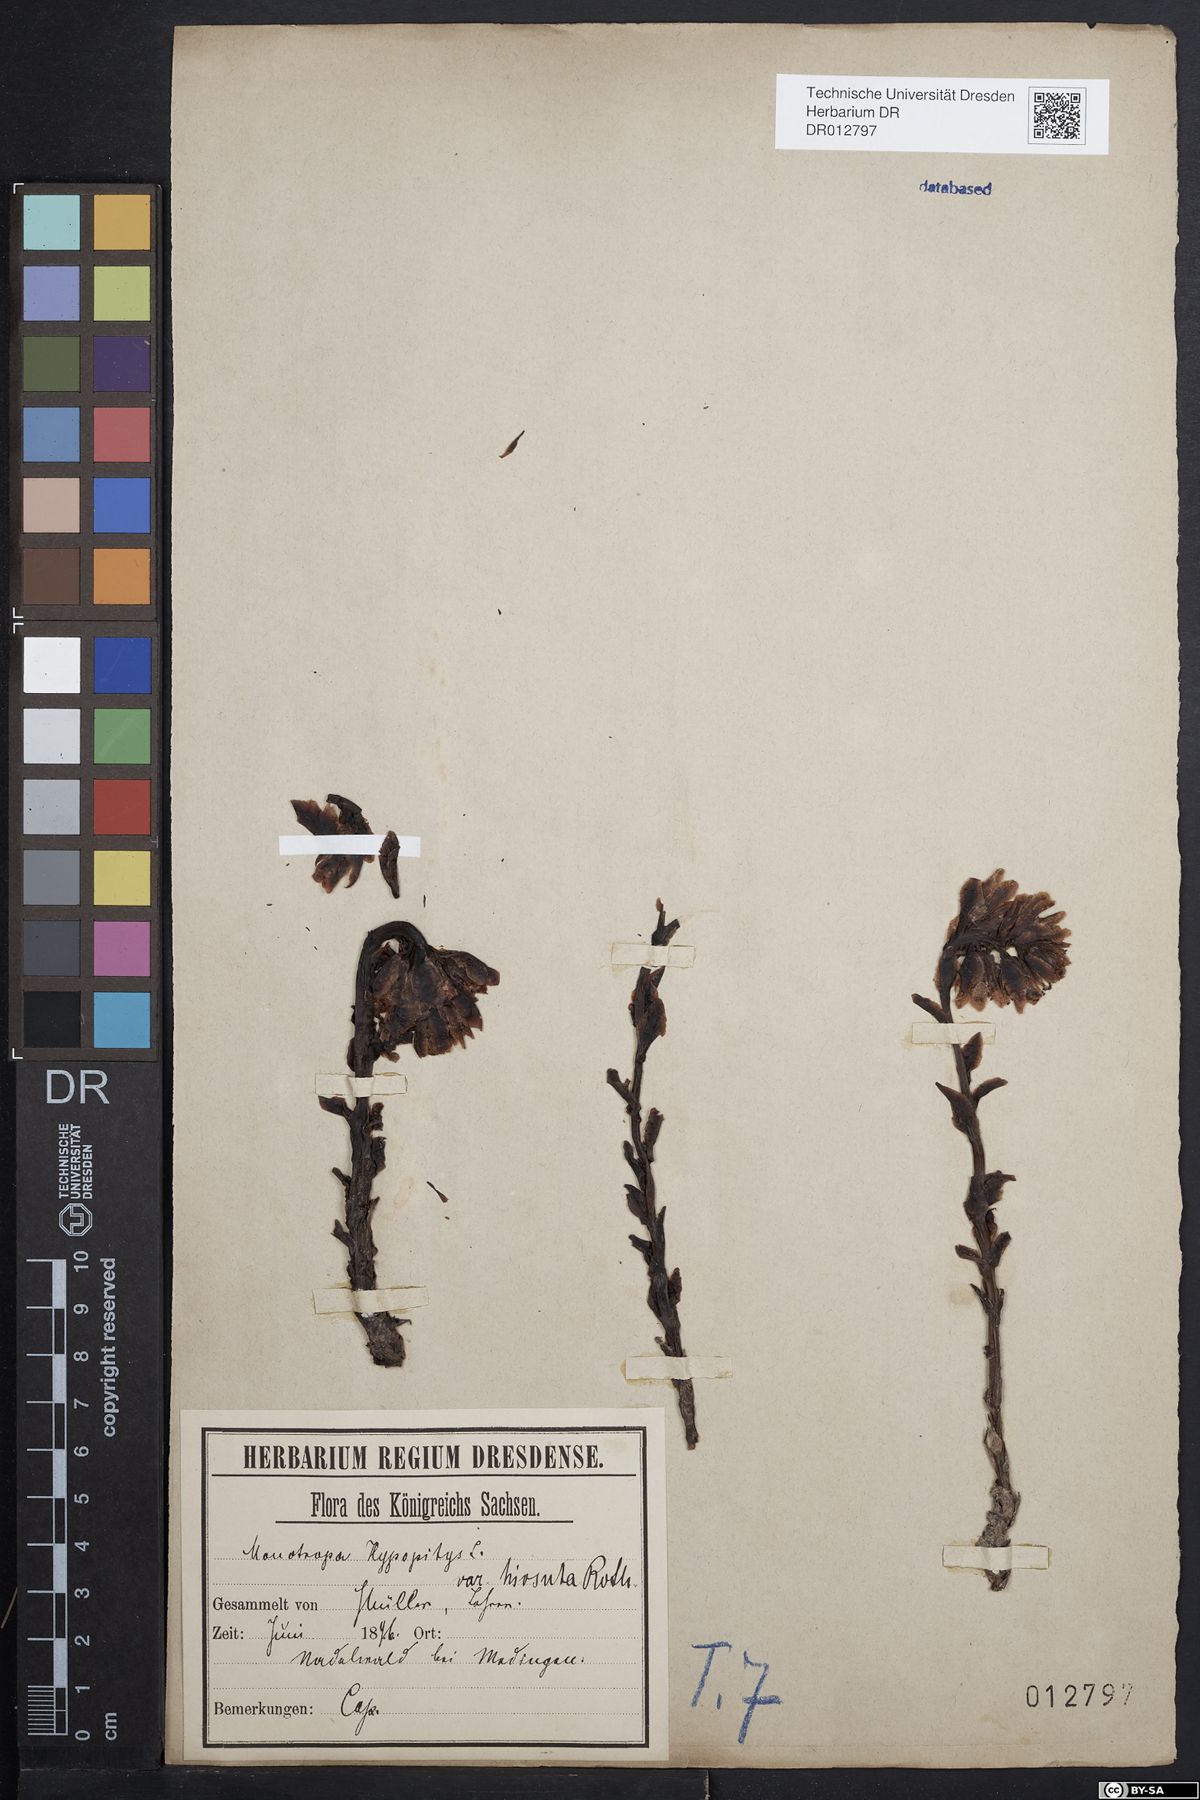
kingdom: Plantae
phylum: Tracheophyta
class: Magnoliopsida
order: Ericales
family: Ericaceae
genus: Hypopitys
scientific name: Hypopitys monotropa
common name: Yellow bird's-nest
